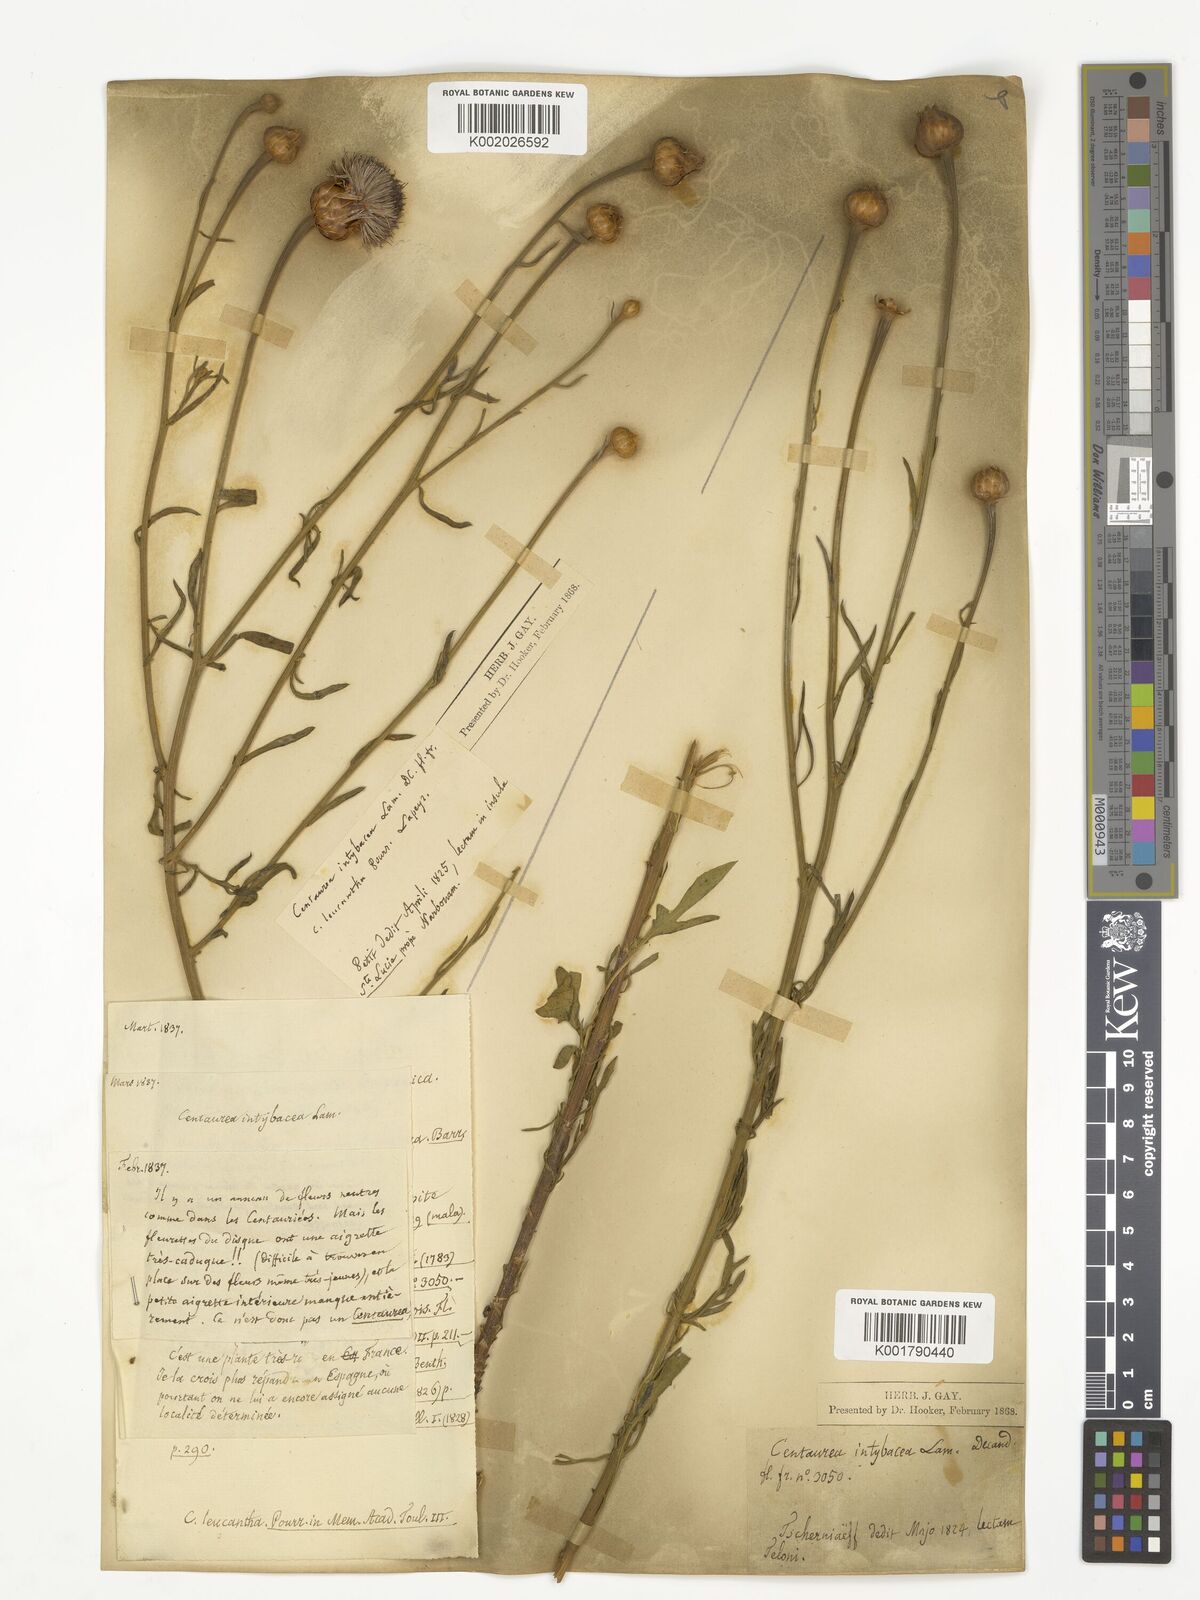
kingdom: Plantae
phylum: Tracheophyta
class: Magnoliopsida
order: Asterales
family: Asteraceae
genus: Cheirolophus
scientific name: Cheirolophus intybaceus
